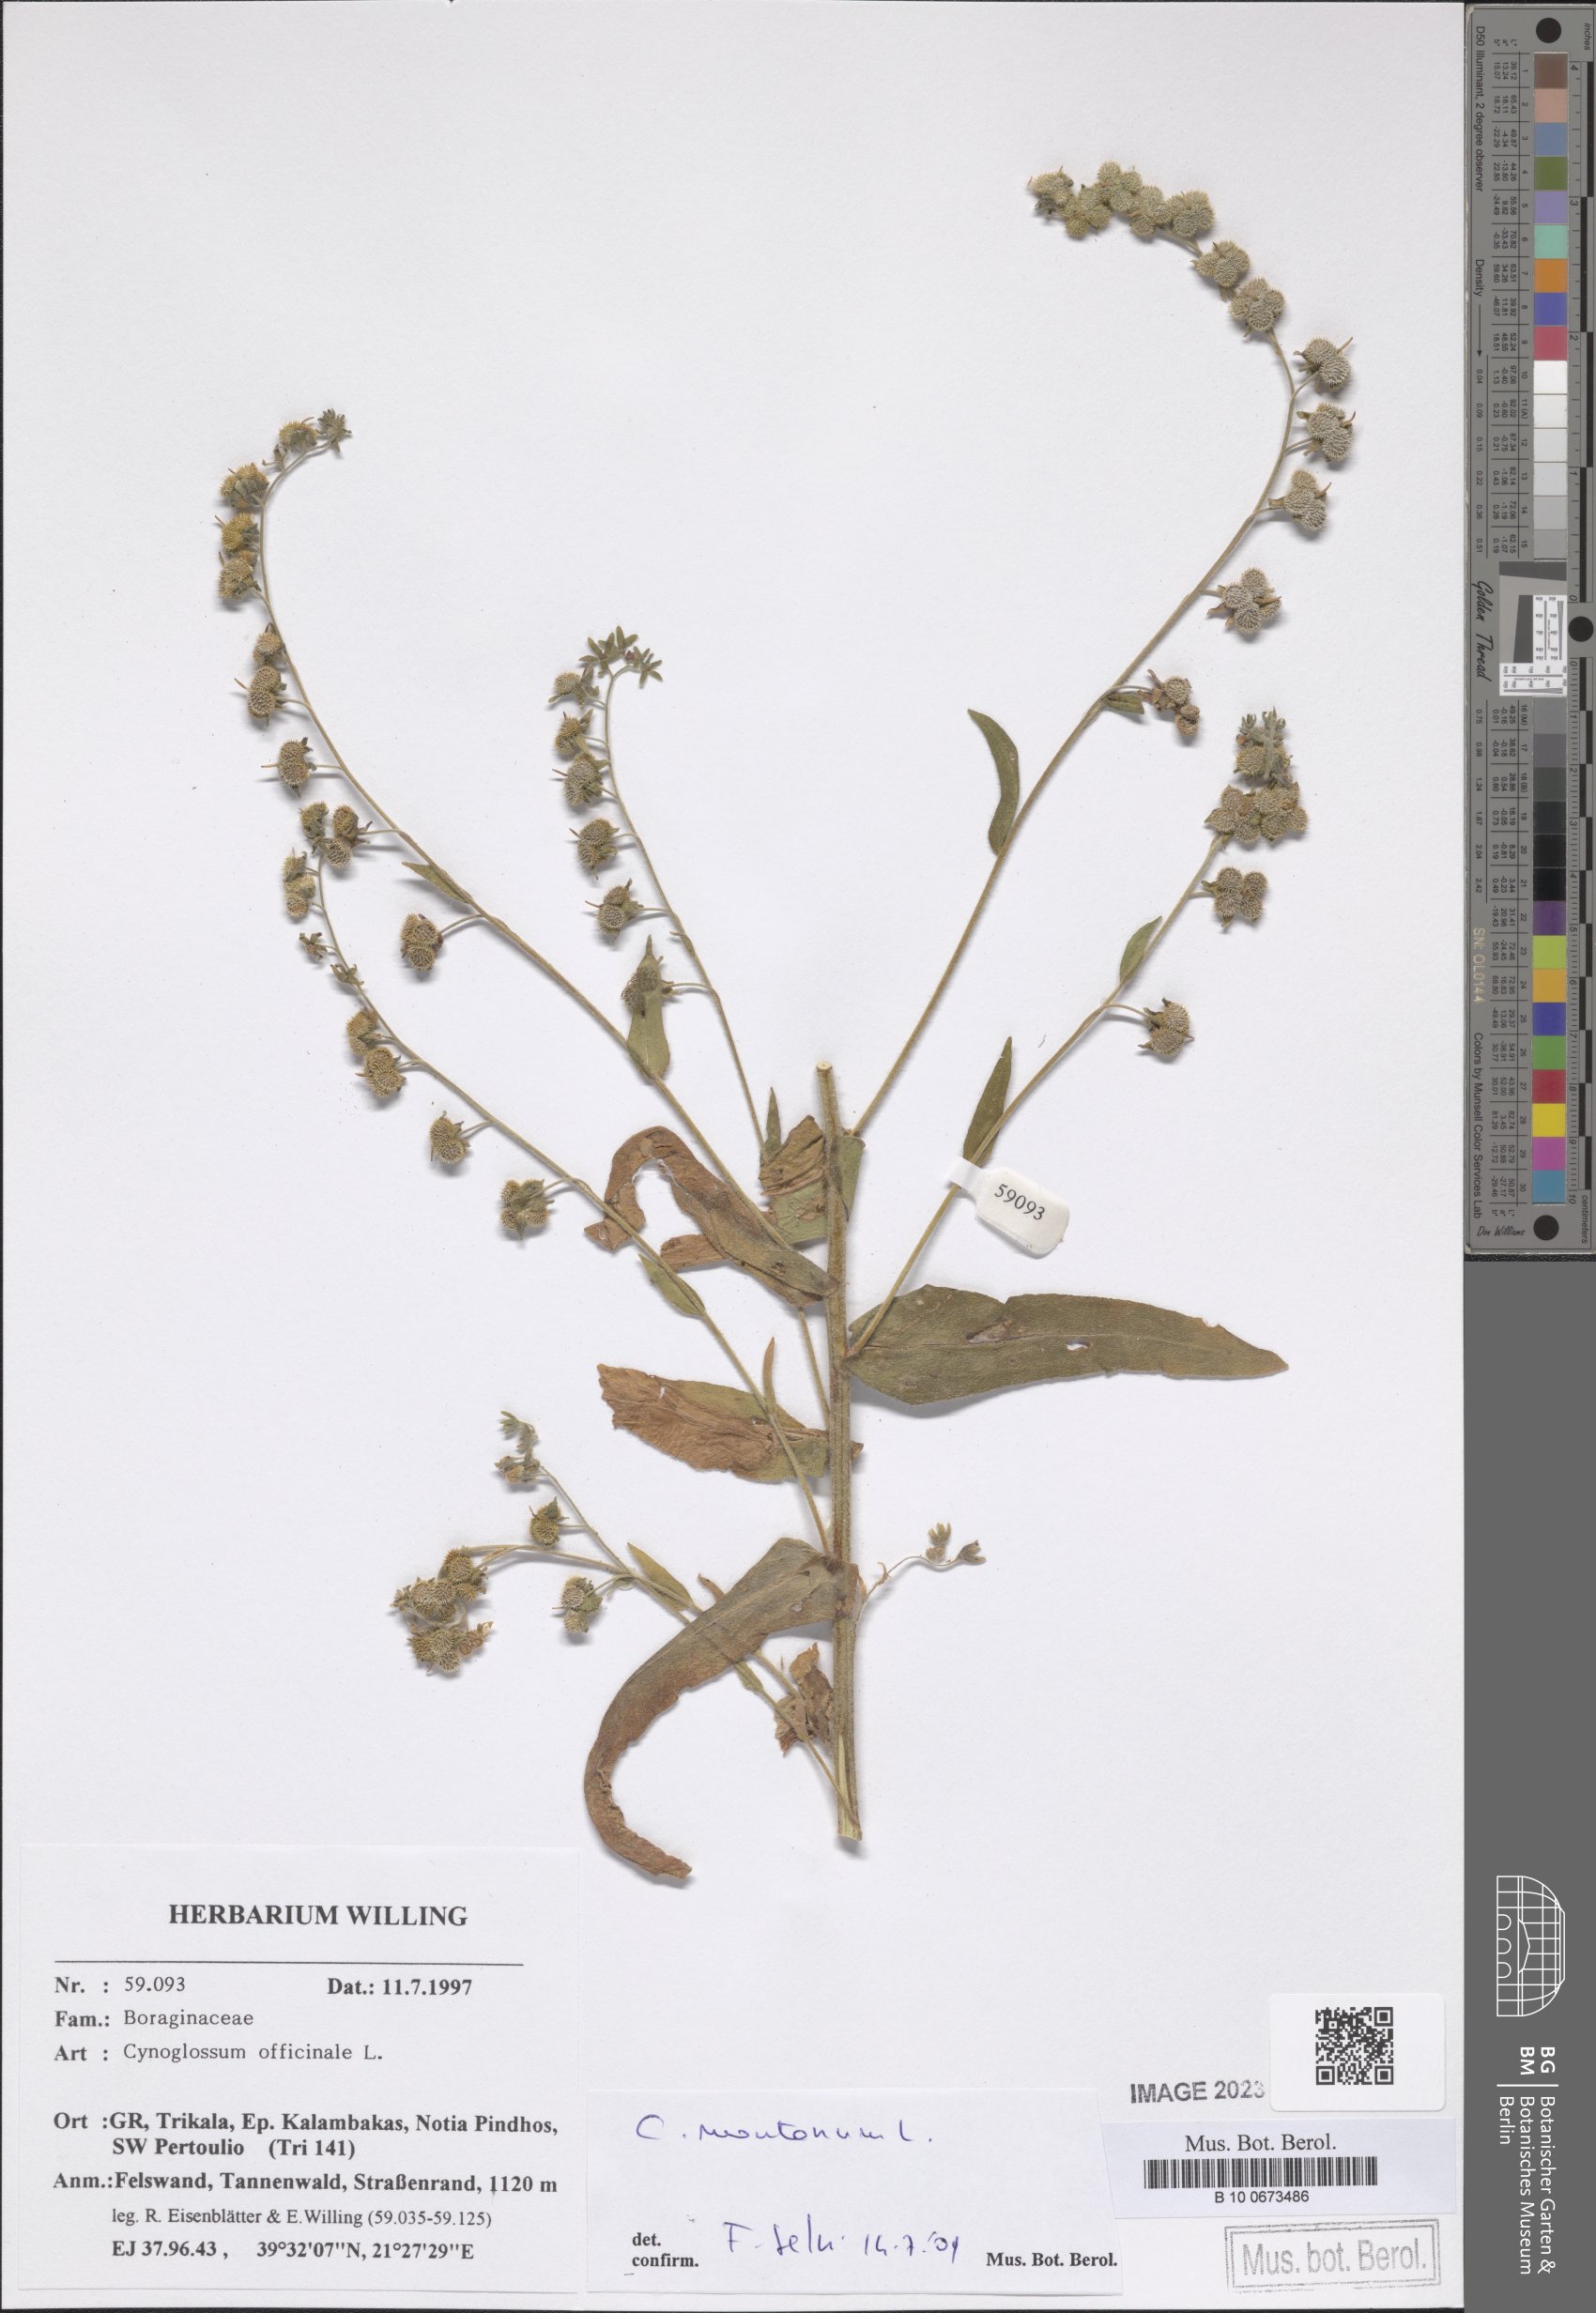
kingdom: Plantae
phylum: Tracheophyta
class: Magnoliopsida
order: Boraginales
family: Boraginaceae
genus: Cynoglossum
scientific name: Cynoglossum montanum
